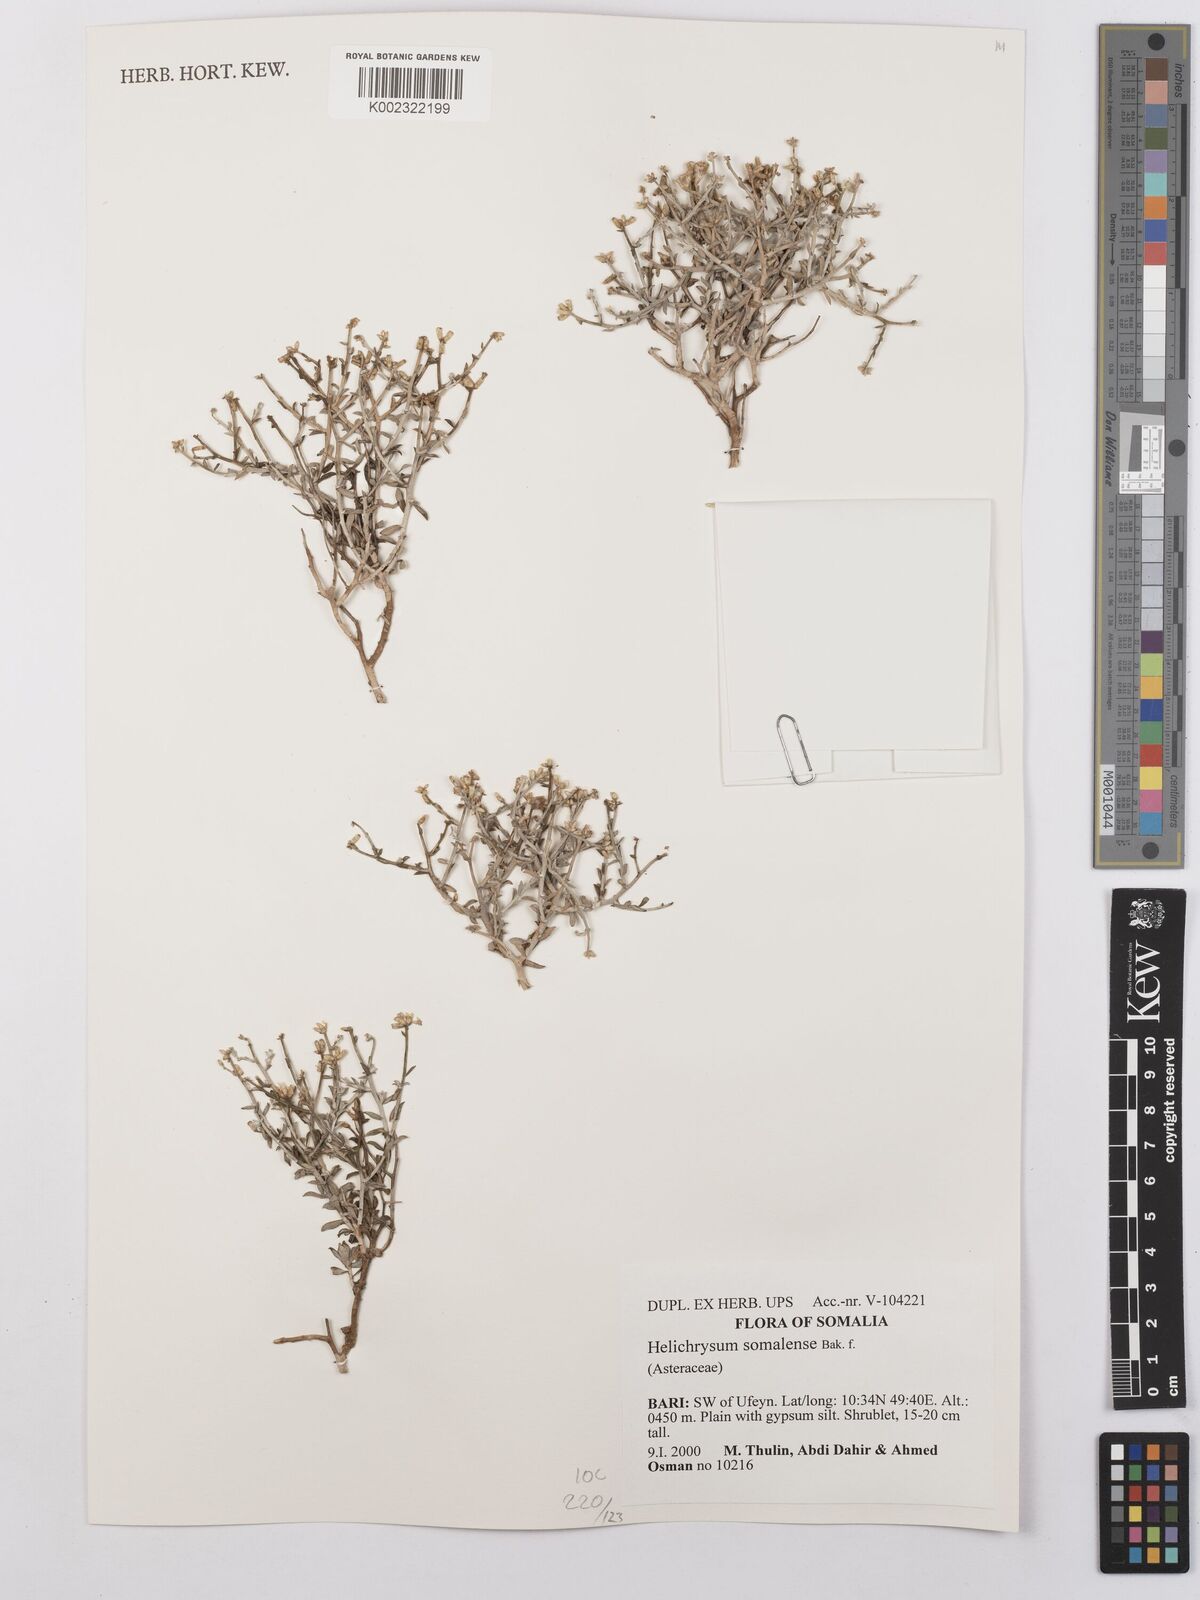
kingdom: Plantae
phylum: Tracheophyta
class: Magnoliopsida
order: Asterales
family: Asteraceae
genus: Helichrysum
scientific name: Helichrysum somalense
